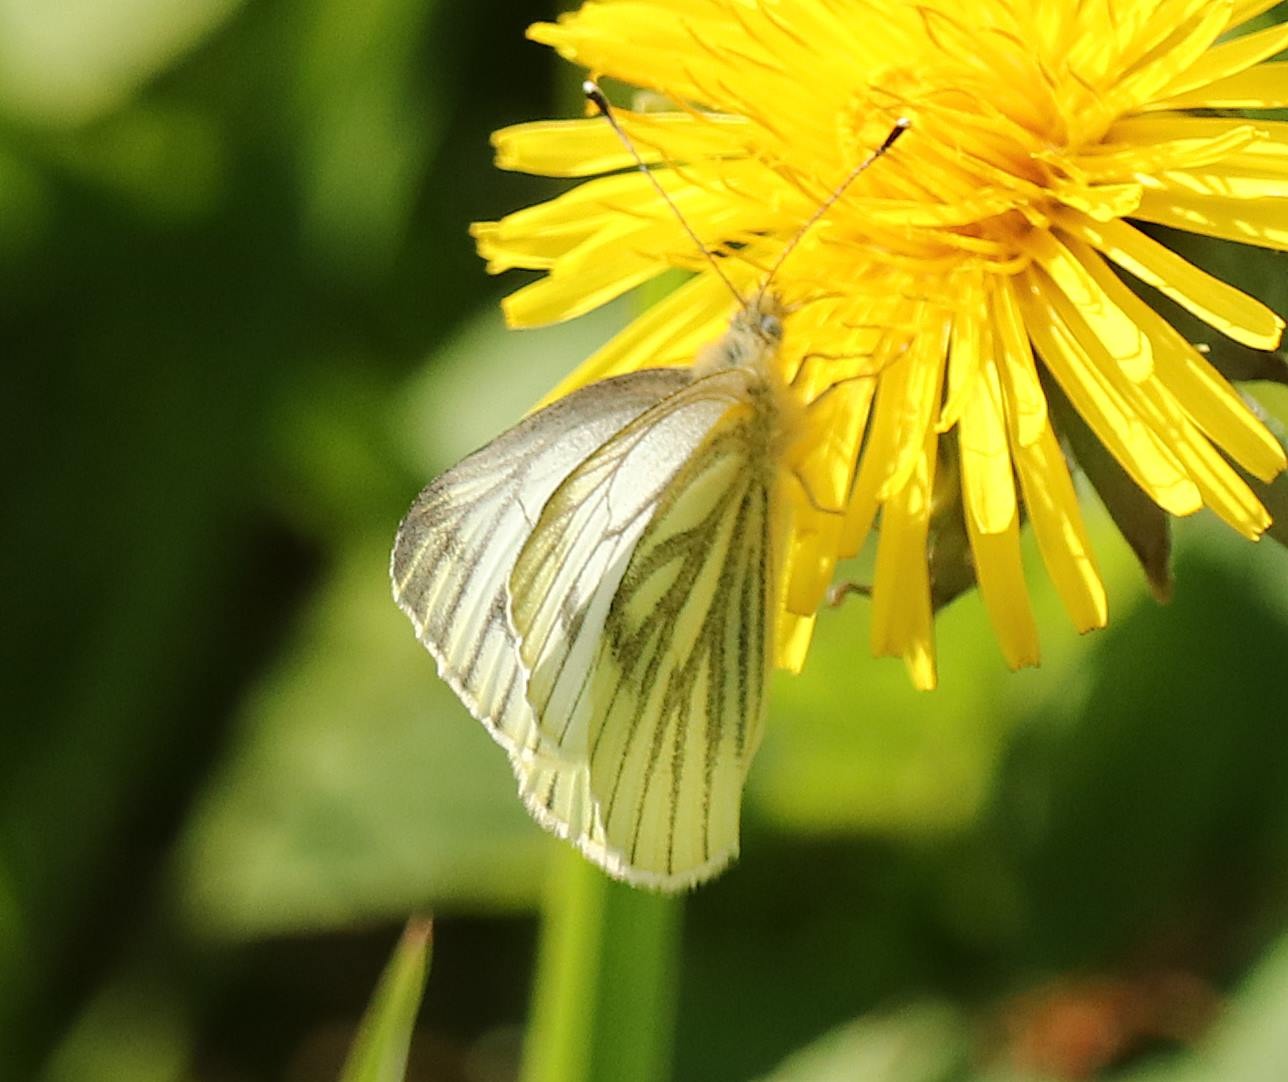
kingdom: Animalia
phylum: Arthropoda
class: Insecta
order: Lepidoptera
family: Pieridae
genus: Pieris
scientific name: Pieris napi
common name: Grønåret kålsommerfugl
